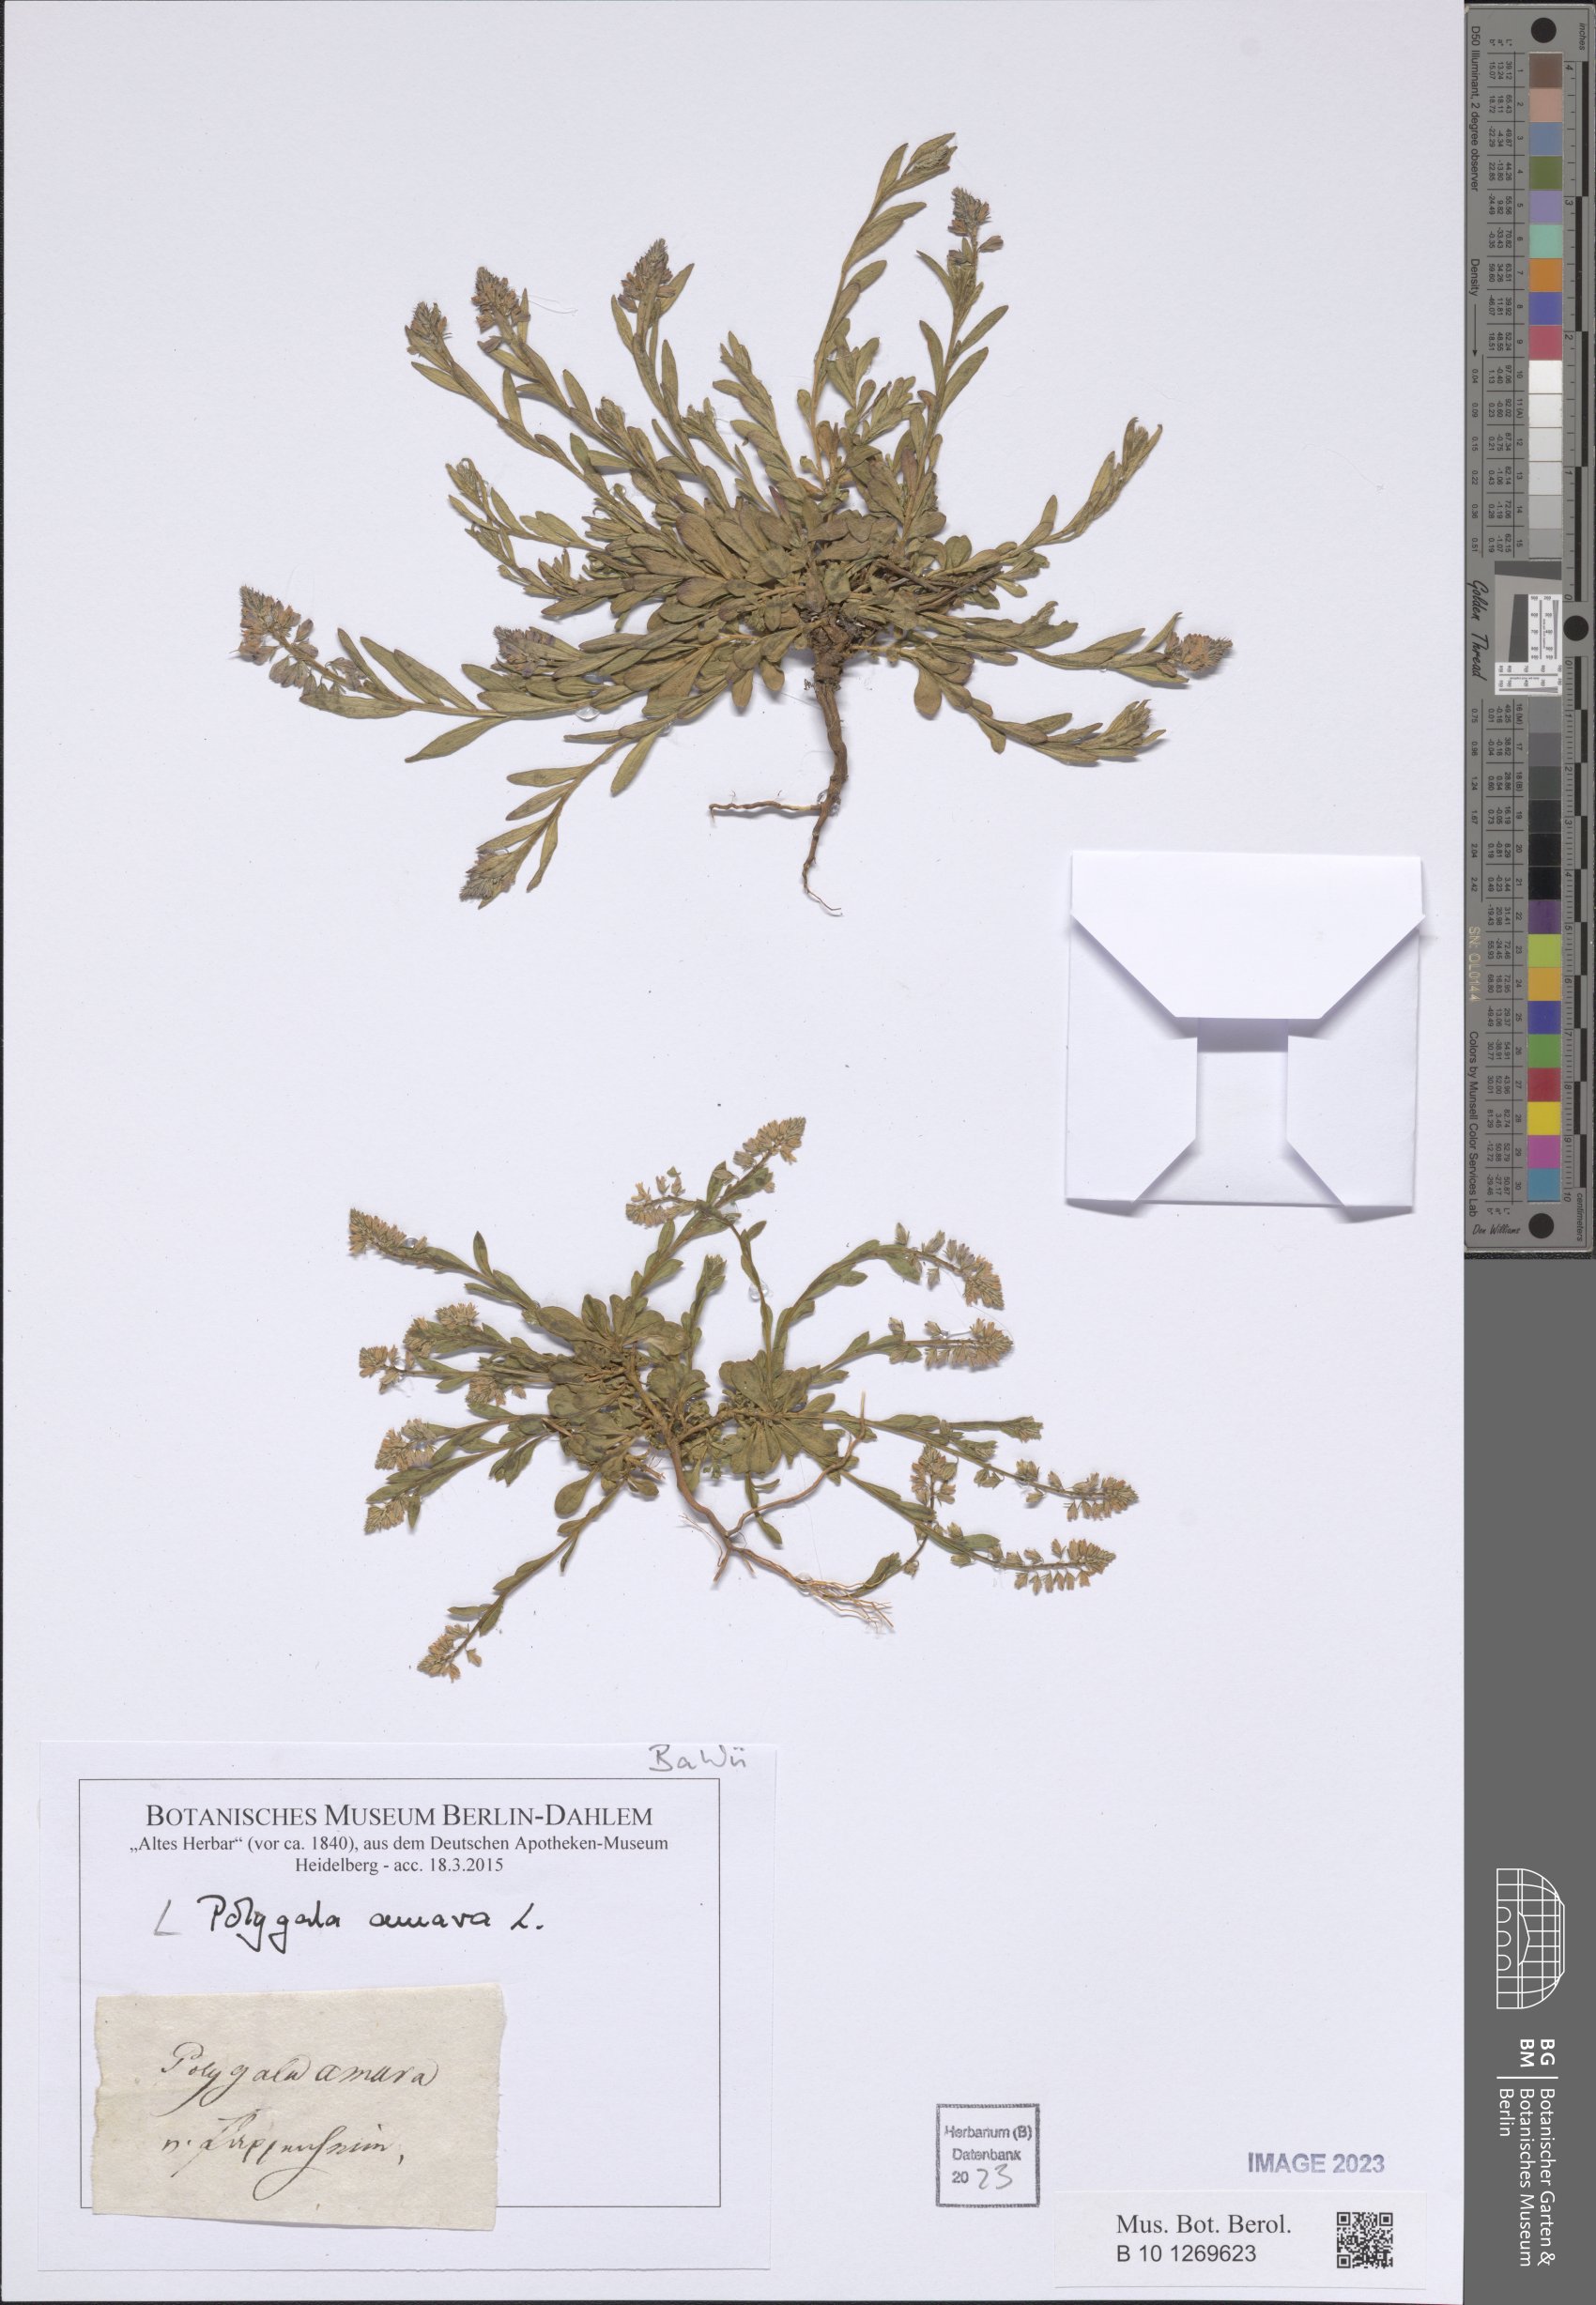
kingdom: Plantae
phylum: Tracheophyta
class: Magnoliopsida
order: Fabales
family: Polygalaceae
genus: Polygala
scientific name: Polygala amara
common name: Milkwort
